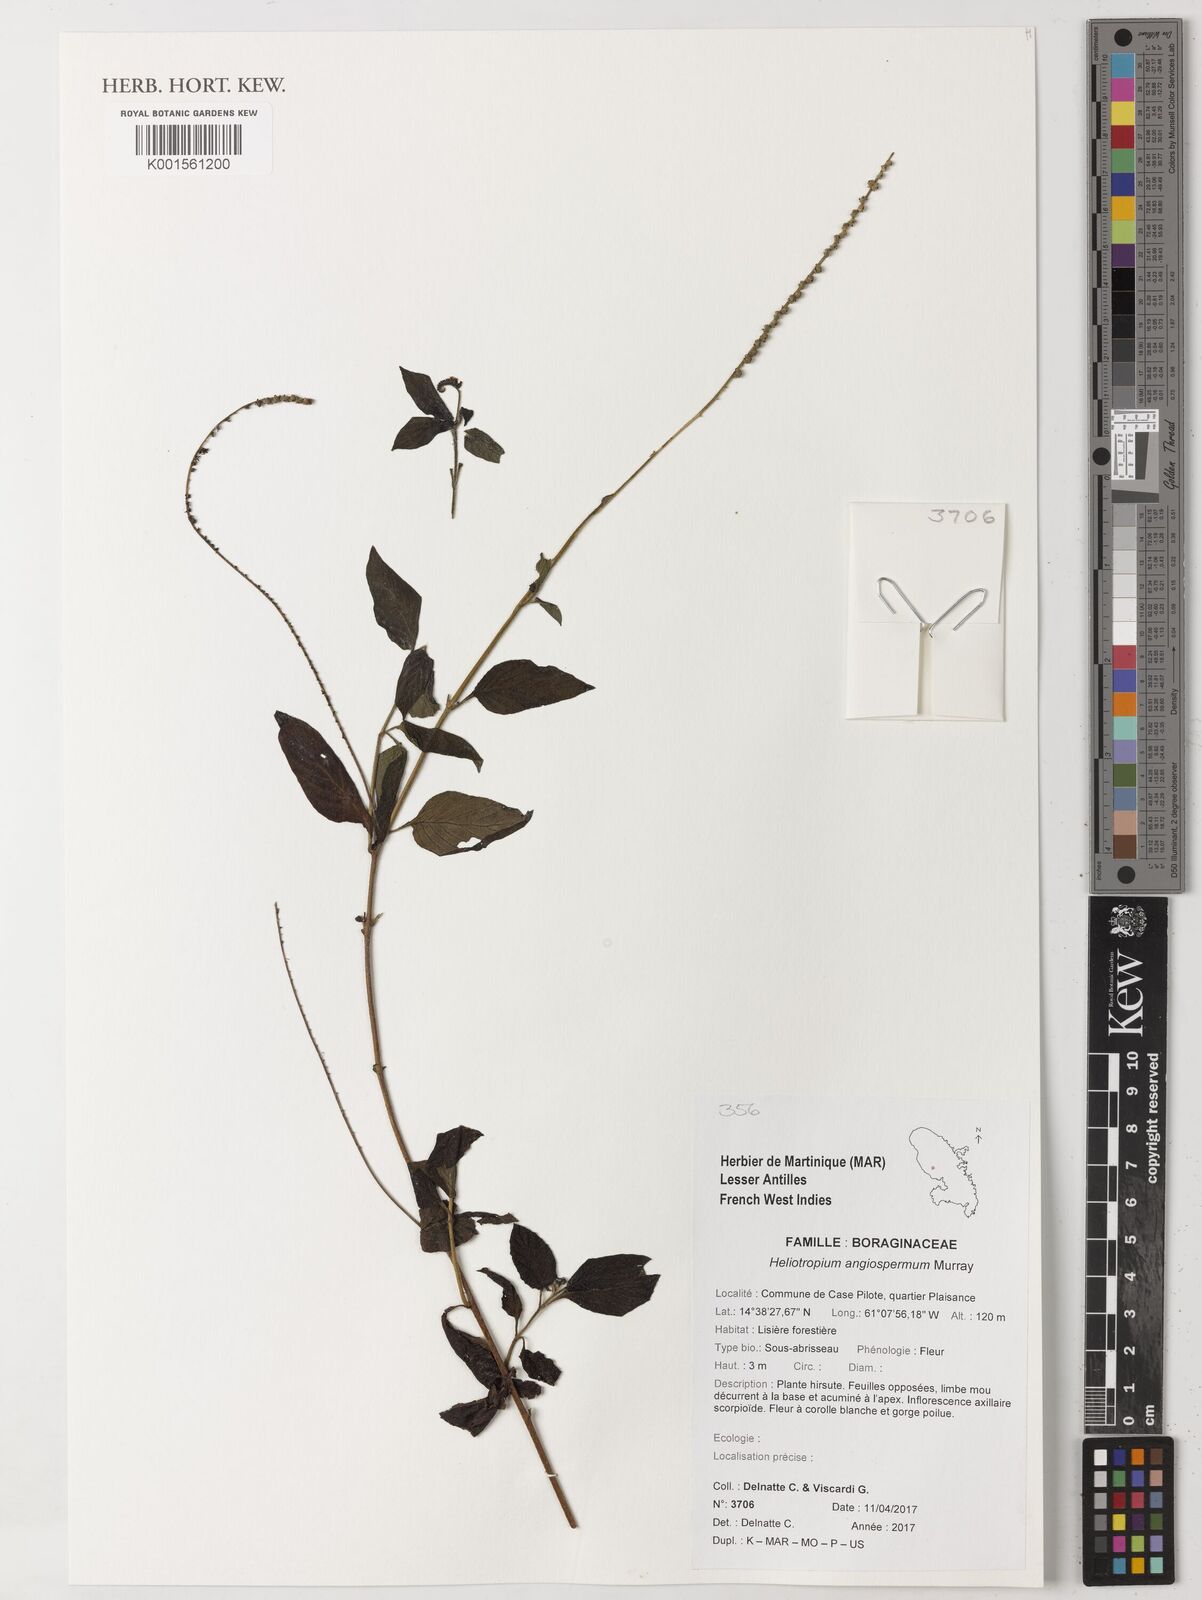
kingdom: Plantae
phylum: Tracheophyta
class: Magnoliopsida
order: Boraginales
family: Heliotropiaceae
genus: Heliotropium
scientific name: Heliotropium angiospermum
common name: Eye bright
